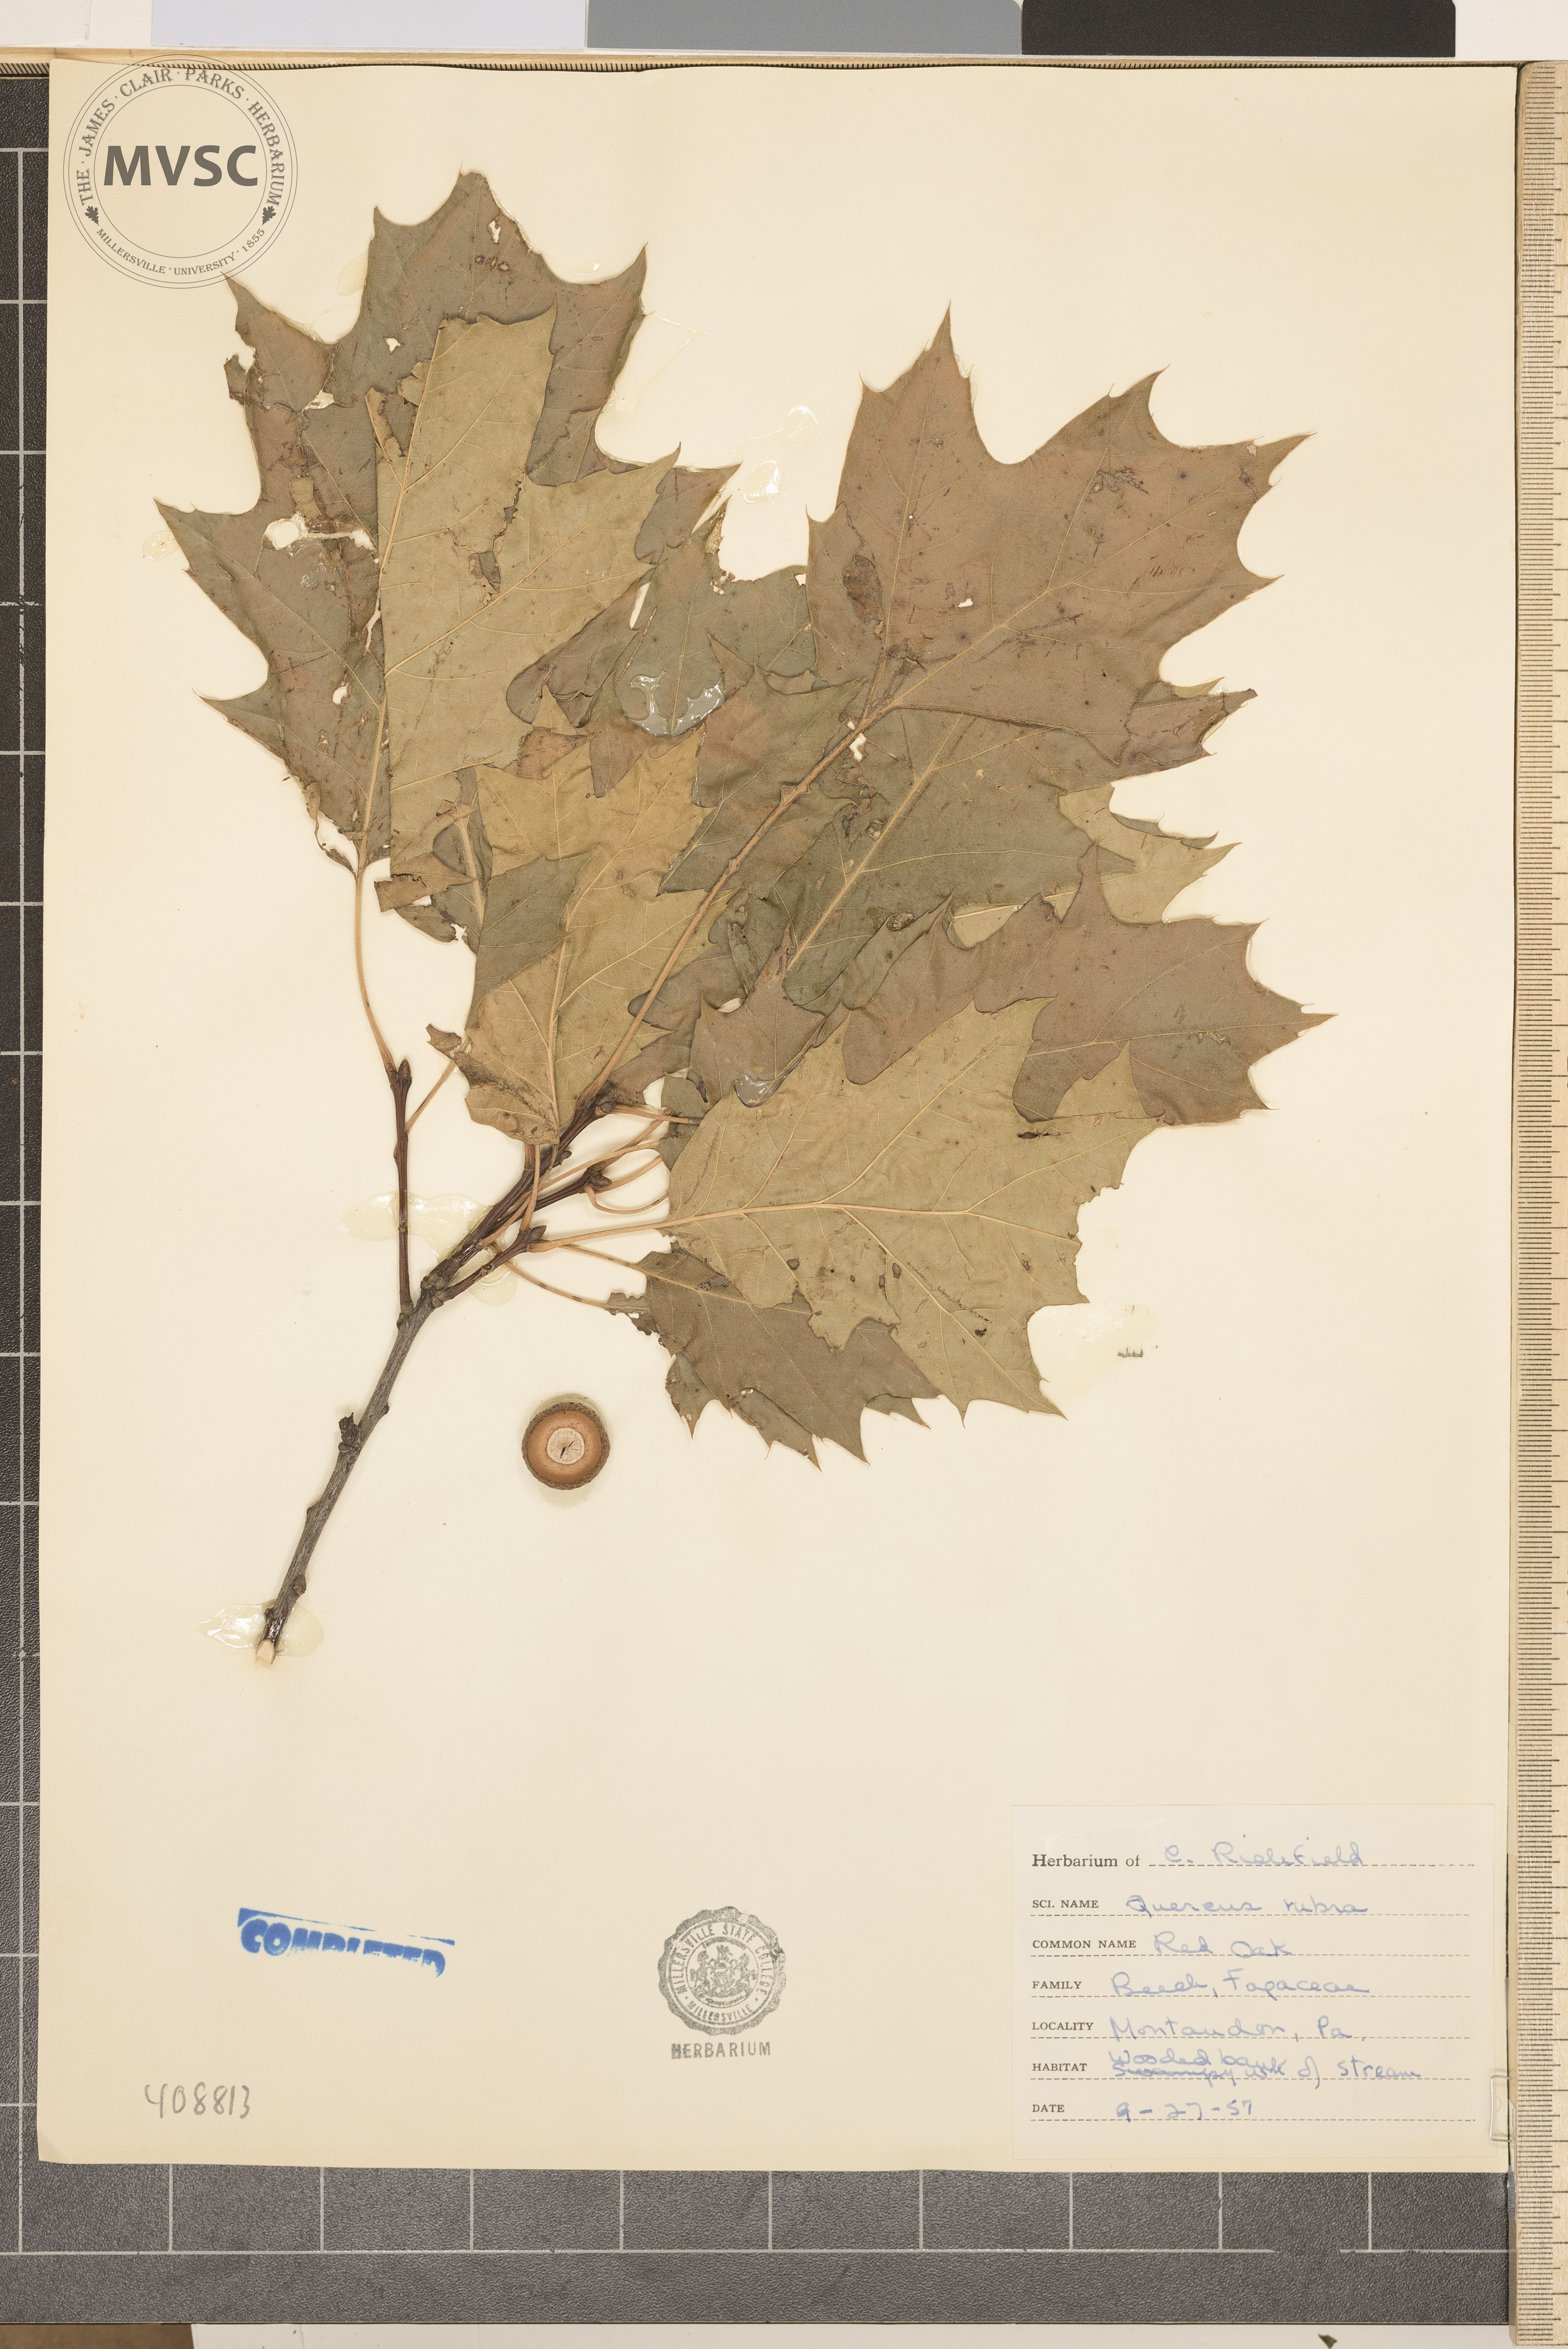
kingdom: Plantae
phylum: Tracheophyta
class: Magnoliopsida
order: Fagales
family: Fagaceae
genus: Quercus
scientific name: Quercus rubra
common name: Red oak
